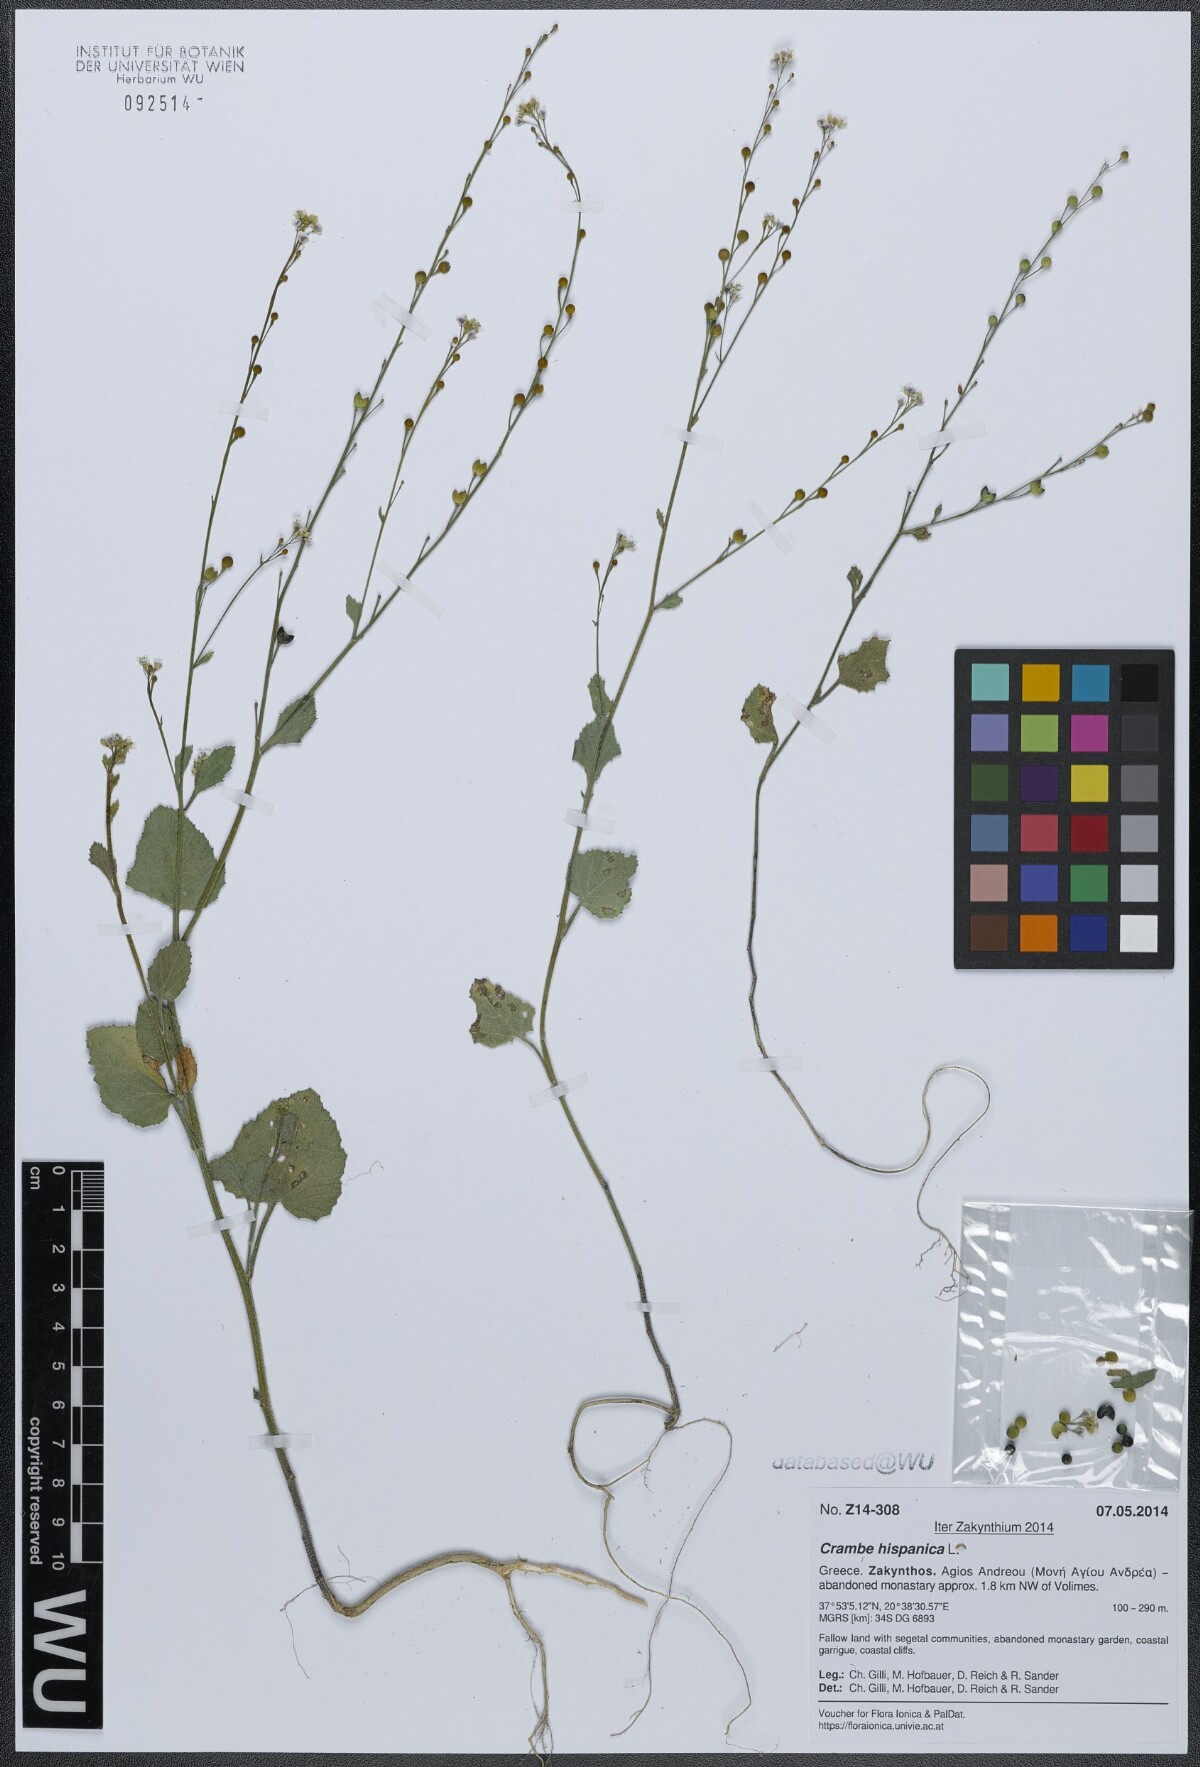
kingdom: Plantae
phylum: Tracheophyta
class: Magnoliopsida
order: Brassicales
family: Brassicaceae
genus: Crambe
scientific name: Crambe hispanica
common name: Abyssinian mustard
